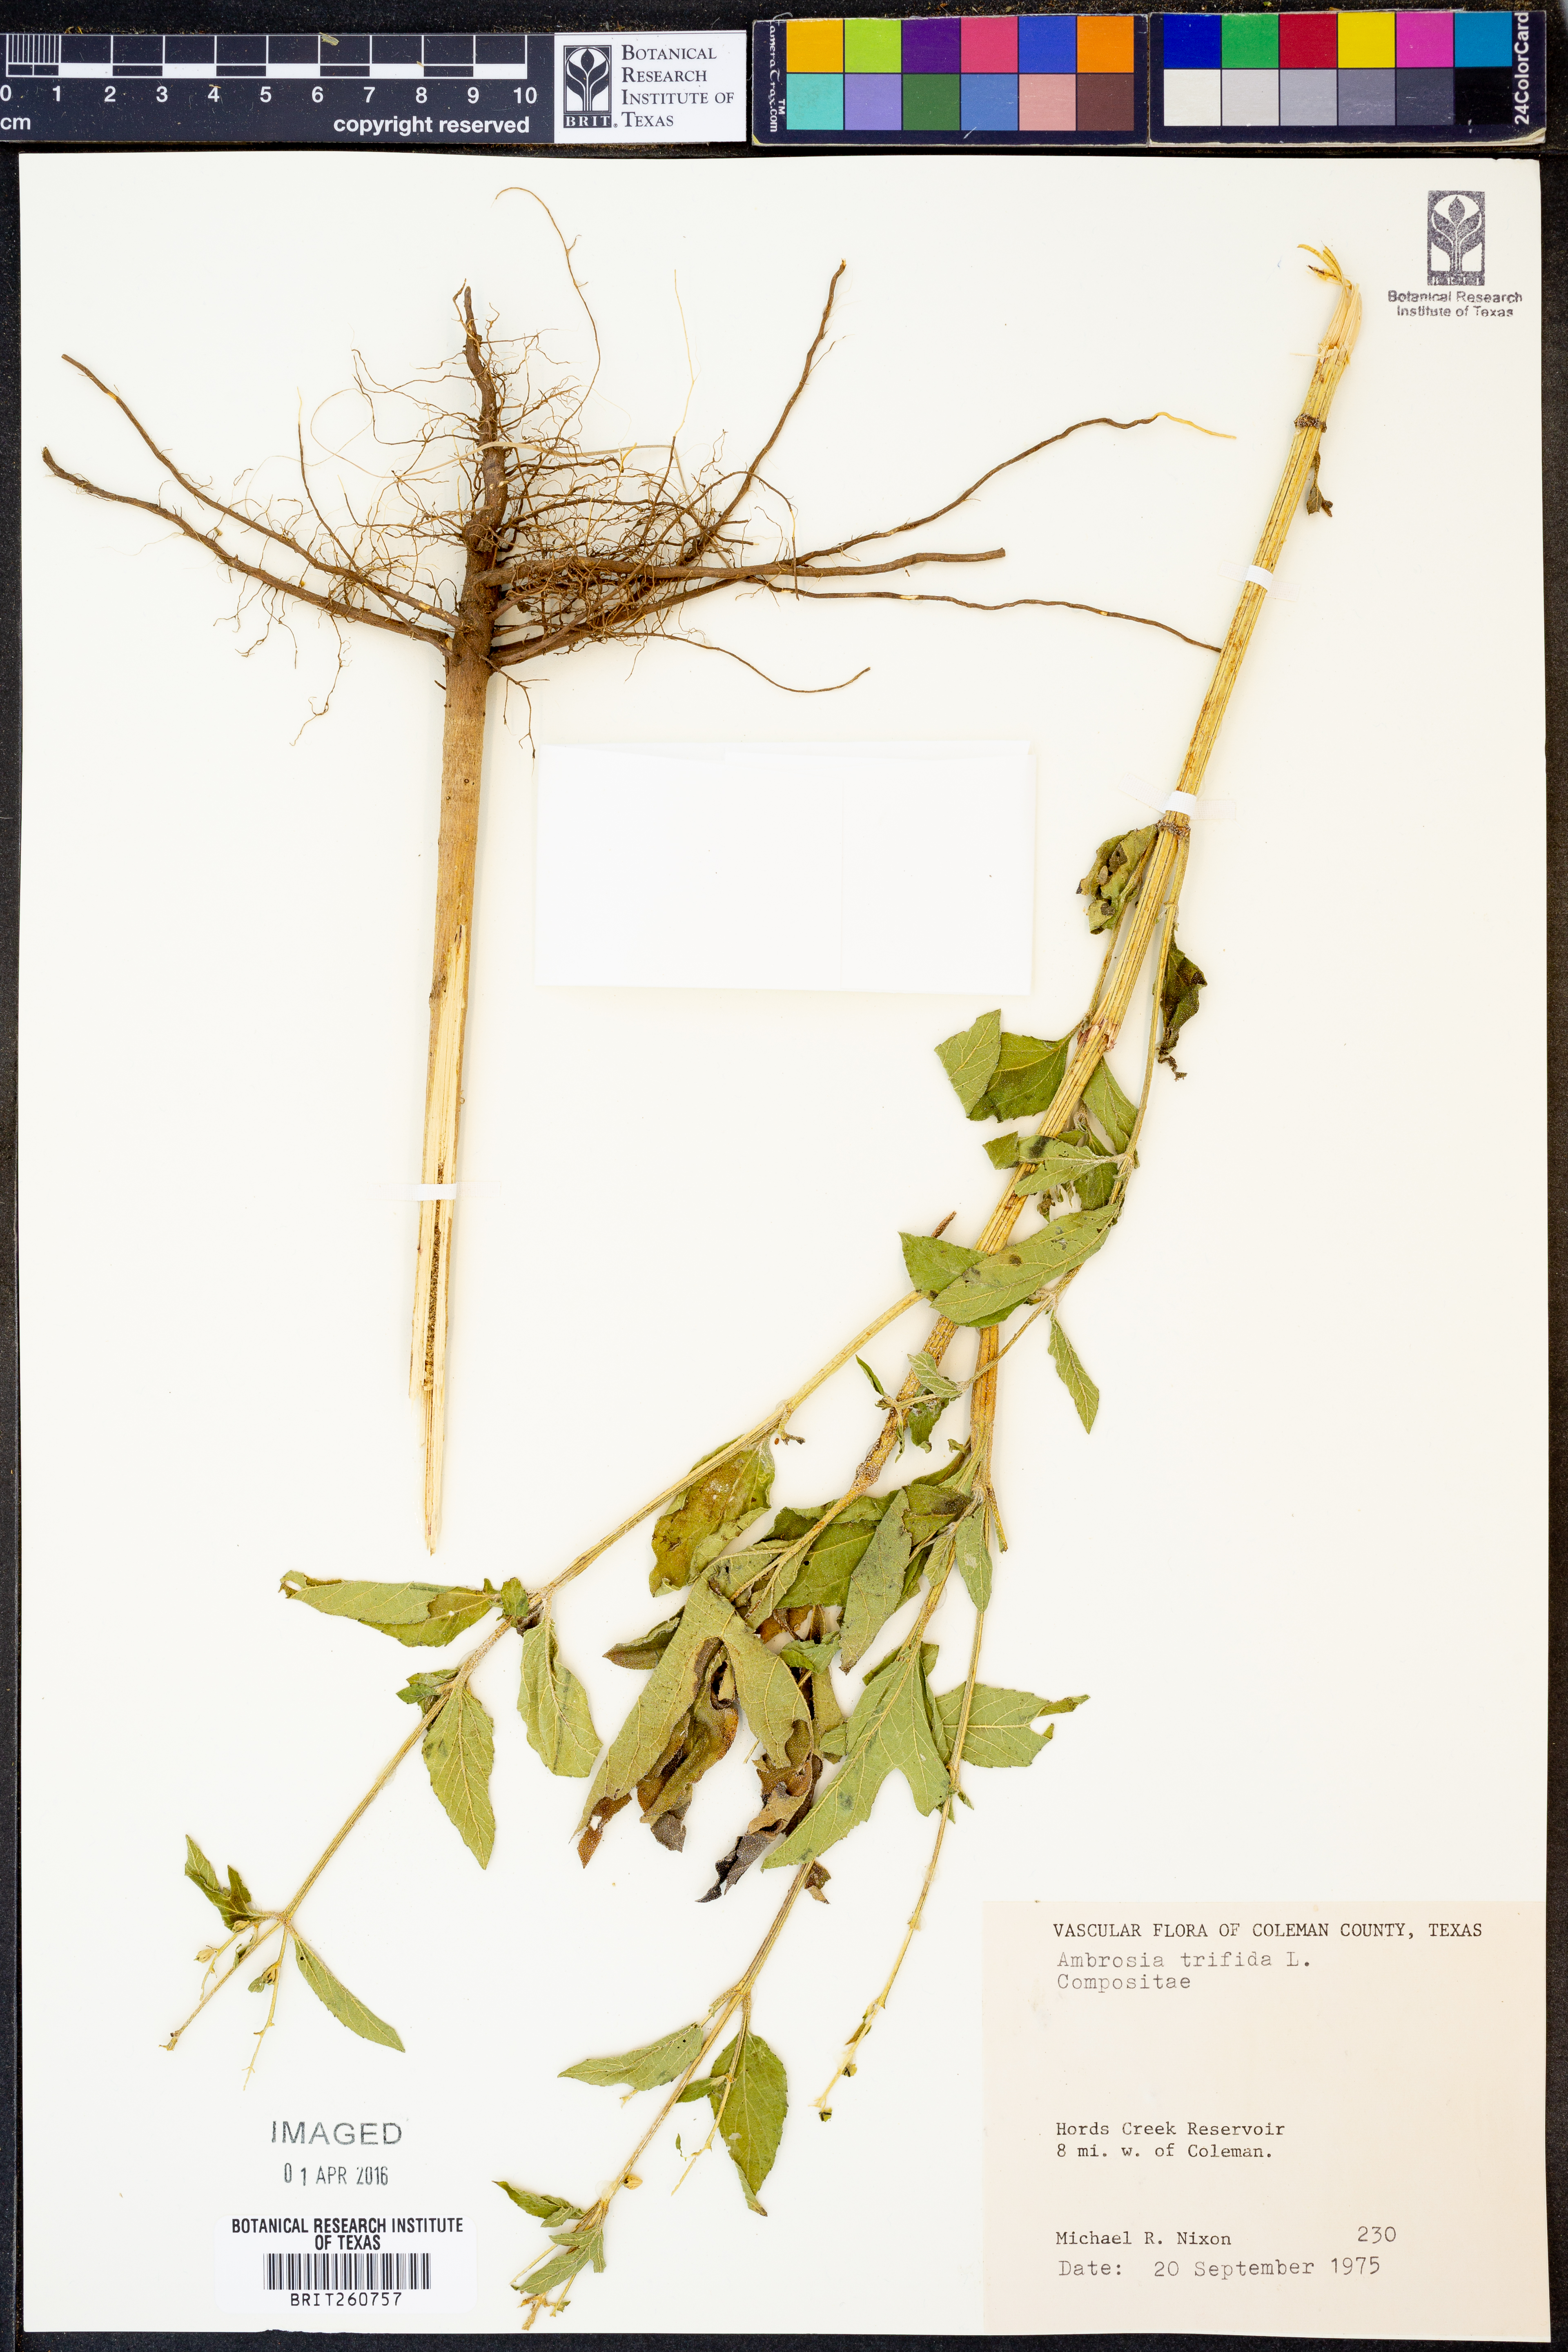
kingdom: Plantae
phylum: Tracheophyta
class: Magnoliopsida
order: Asterales
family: Asteraceae
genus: Ambrosia
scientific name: Ambrosia trifida
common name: Giant ragweed
